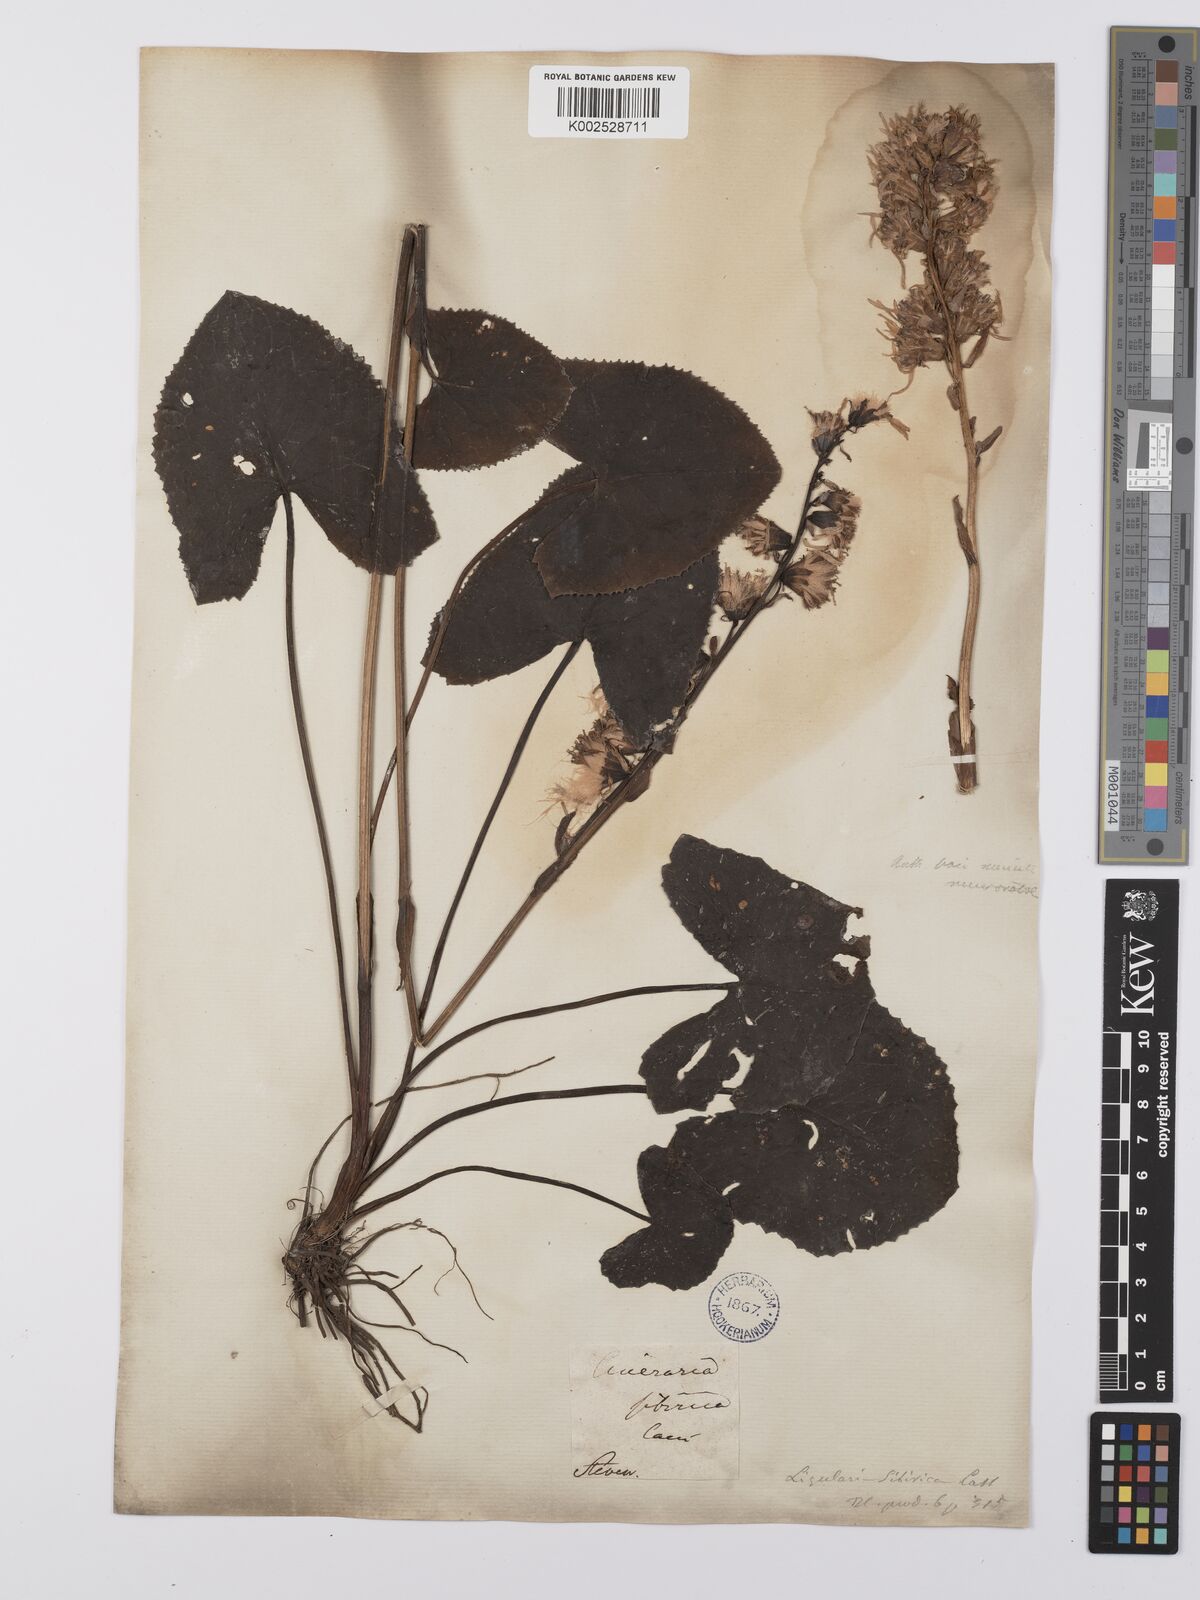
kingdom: Plantae
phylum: Tracheophyta
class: Magnoliopsida
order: Asterales
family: Asteraceae
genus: Ligularia
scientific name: Ligularia sibirica
